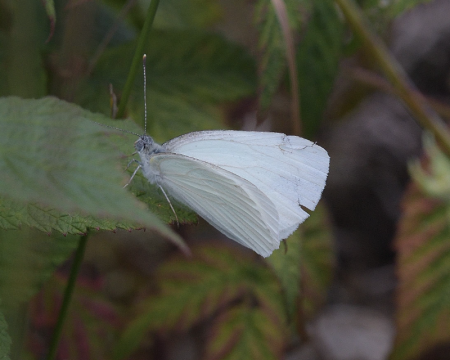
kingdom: Animalia
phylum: Arthropoda
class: Insecta
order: Lepidoptera
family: Pieridae
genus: Pieris
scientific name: Pieris oleracea
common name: Mustard White
